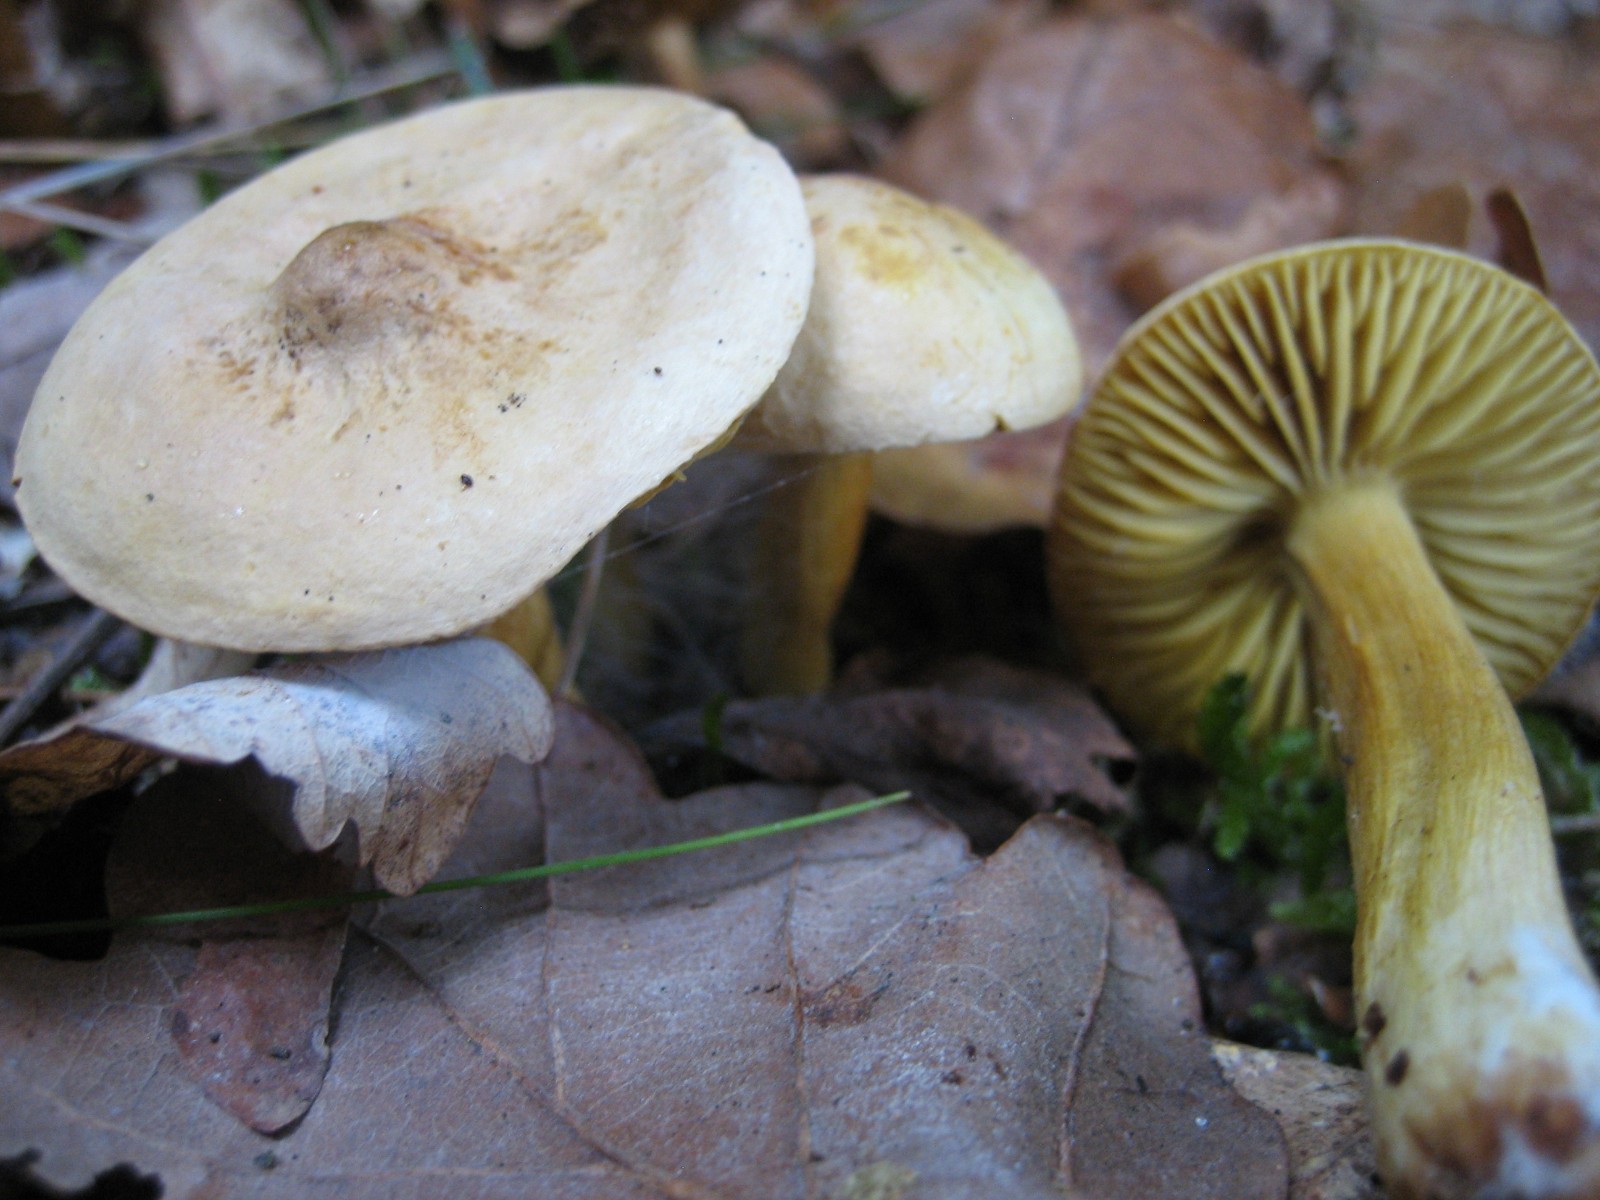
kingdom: Fungi
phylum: Basidiomycota
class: Agaricomycetes
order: Agaricales
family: Tricholomataceae
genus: Tricholoma
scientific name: Tricholoma sulphureum
